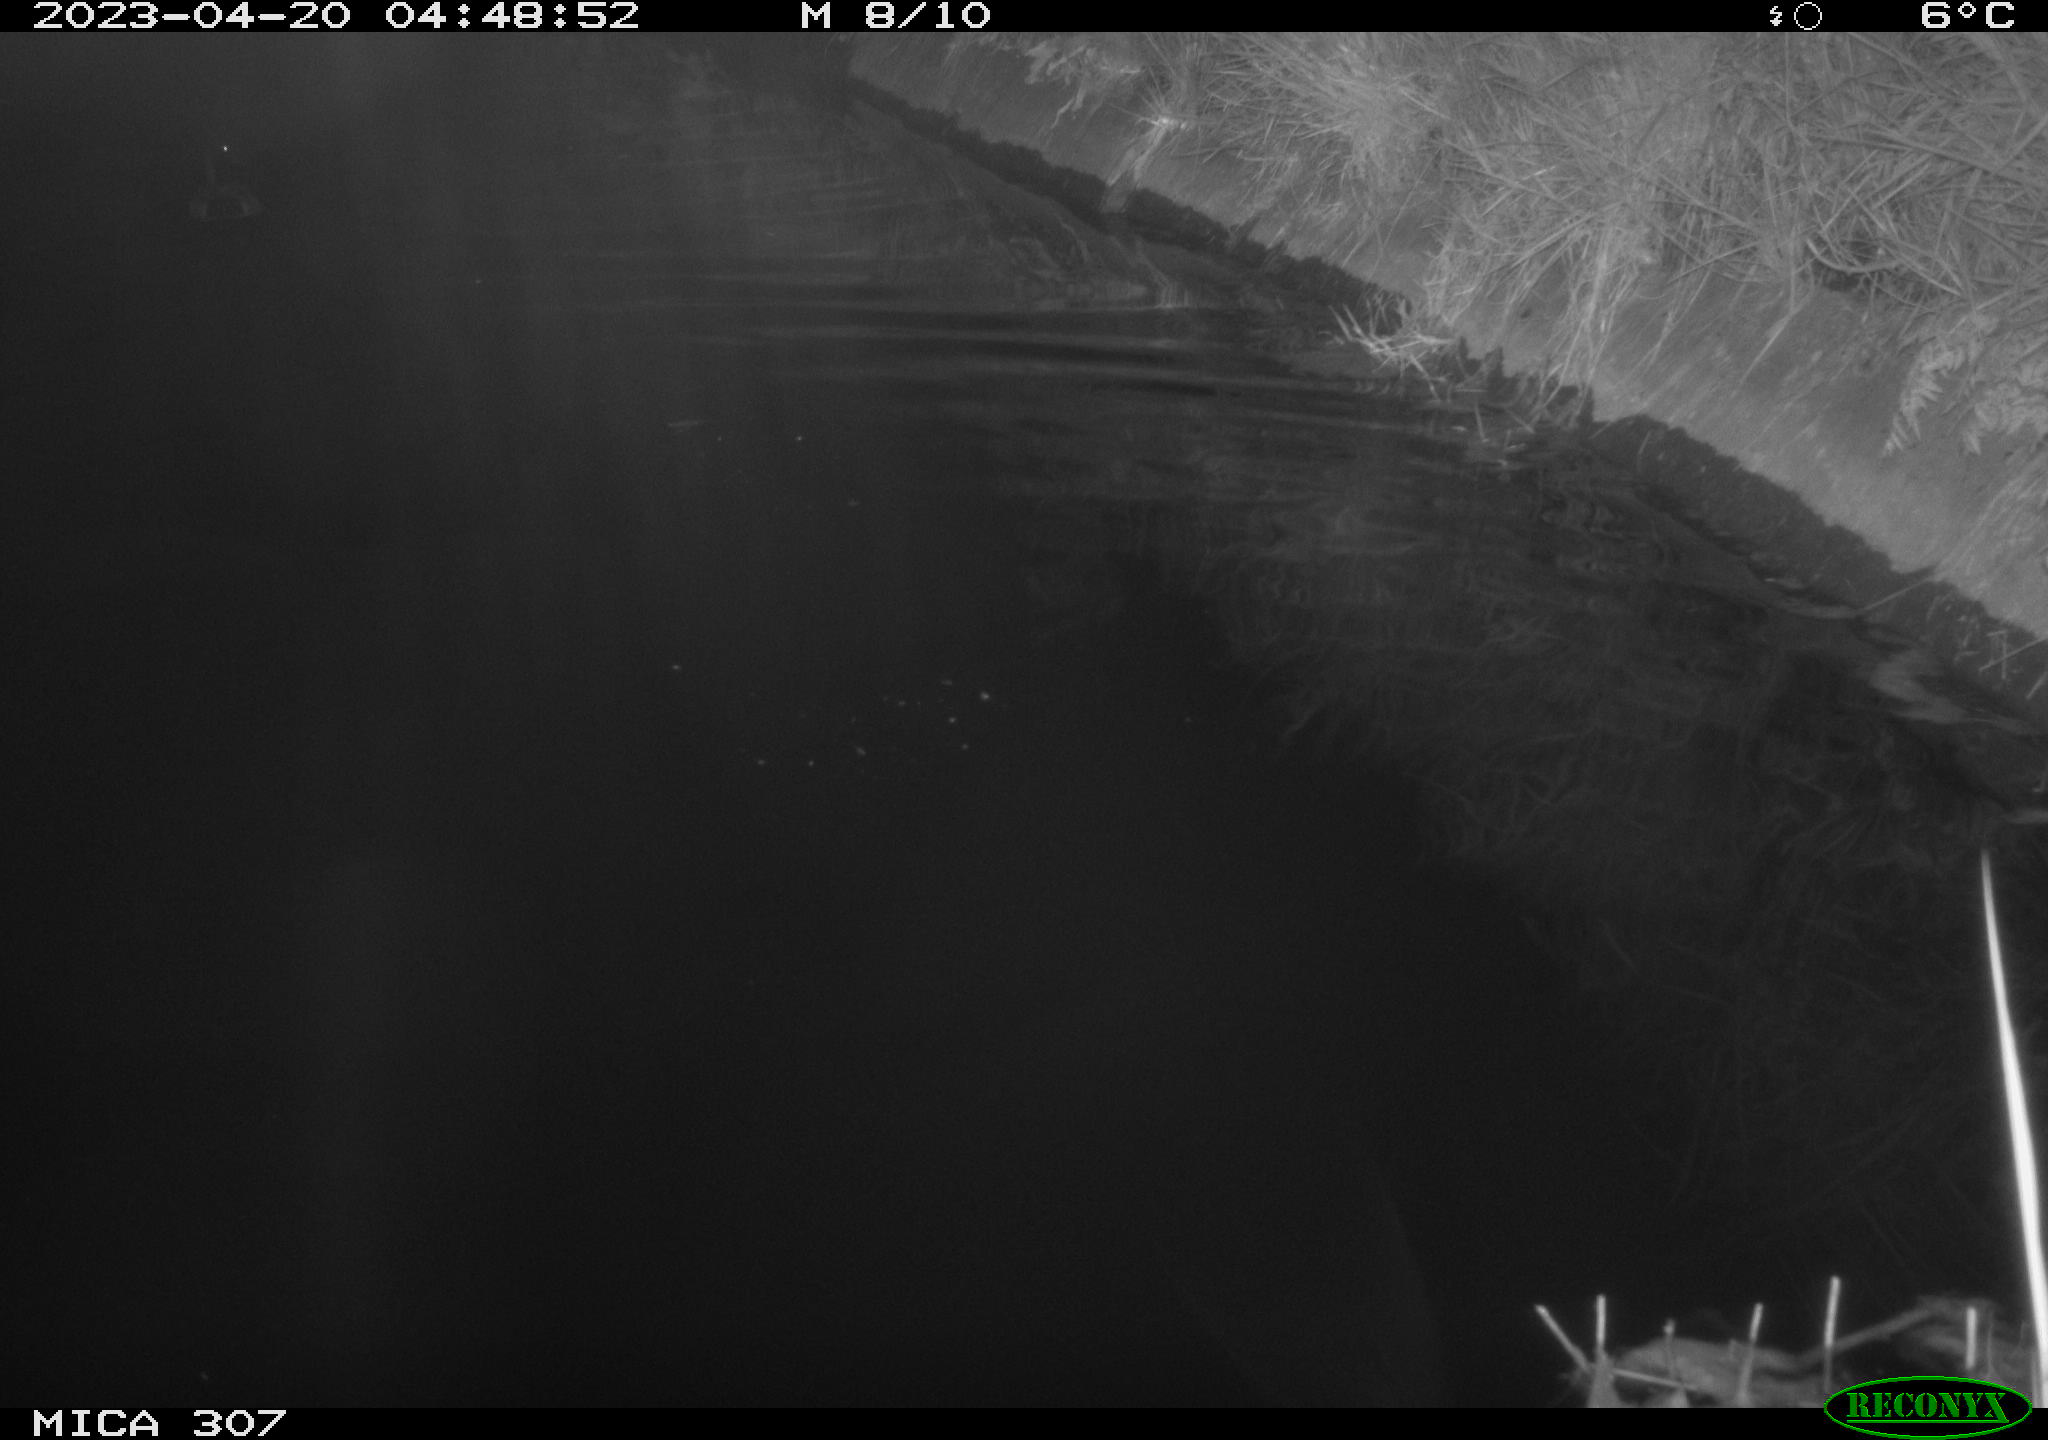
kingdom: Animalia
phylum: Chordata
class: Aves
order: Anseriformes
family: Anatidae
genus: Anas
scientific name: Anas
